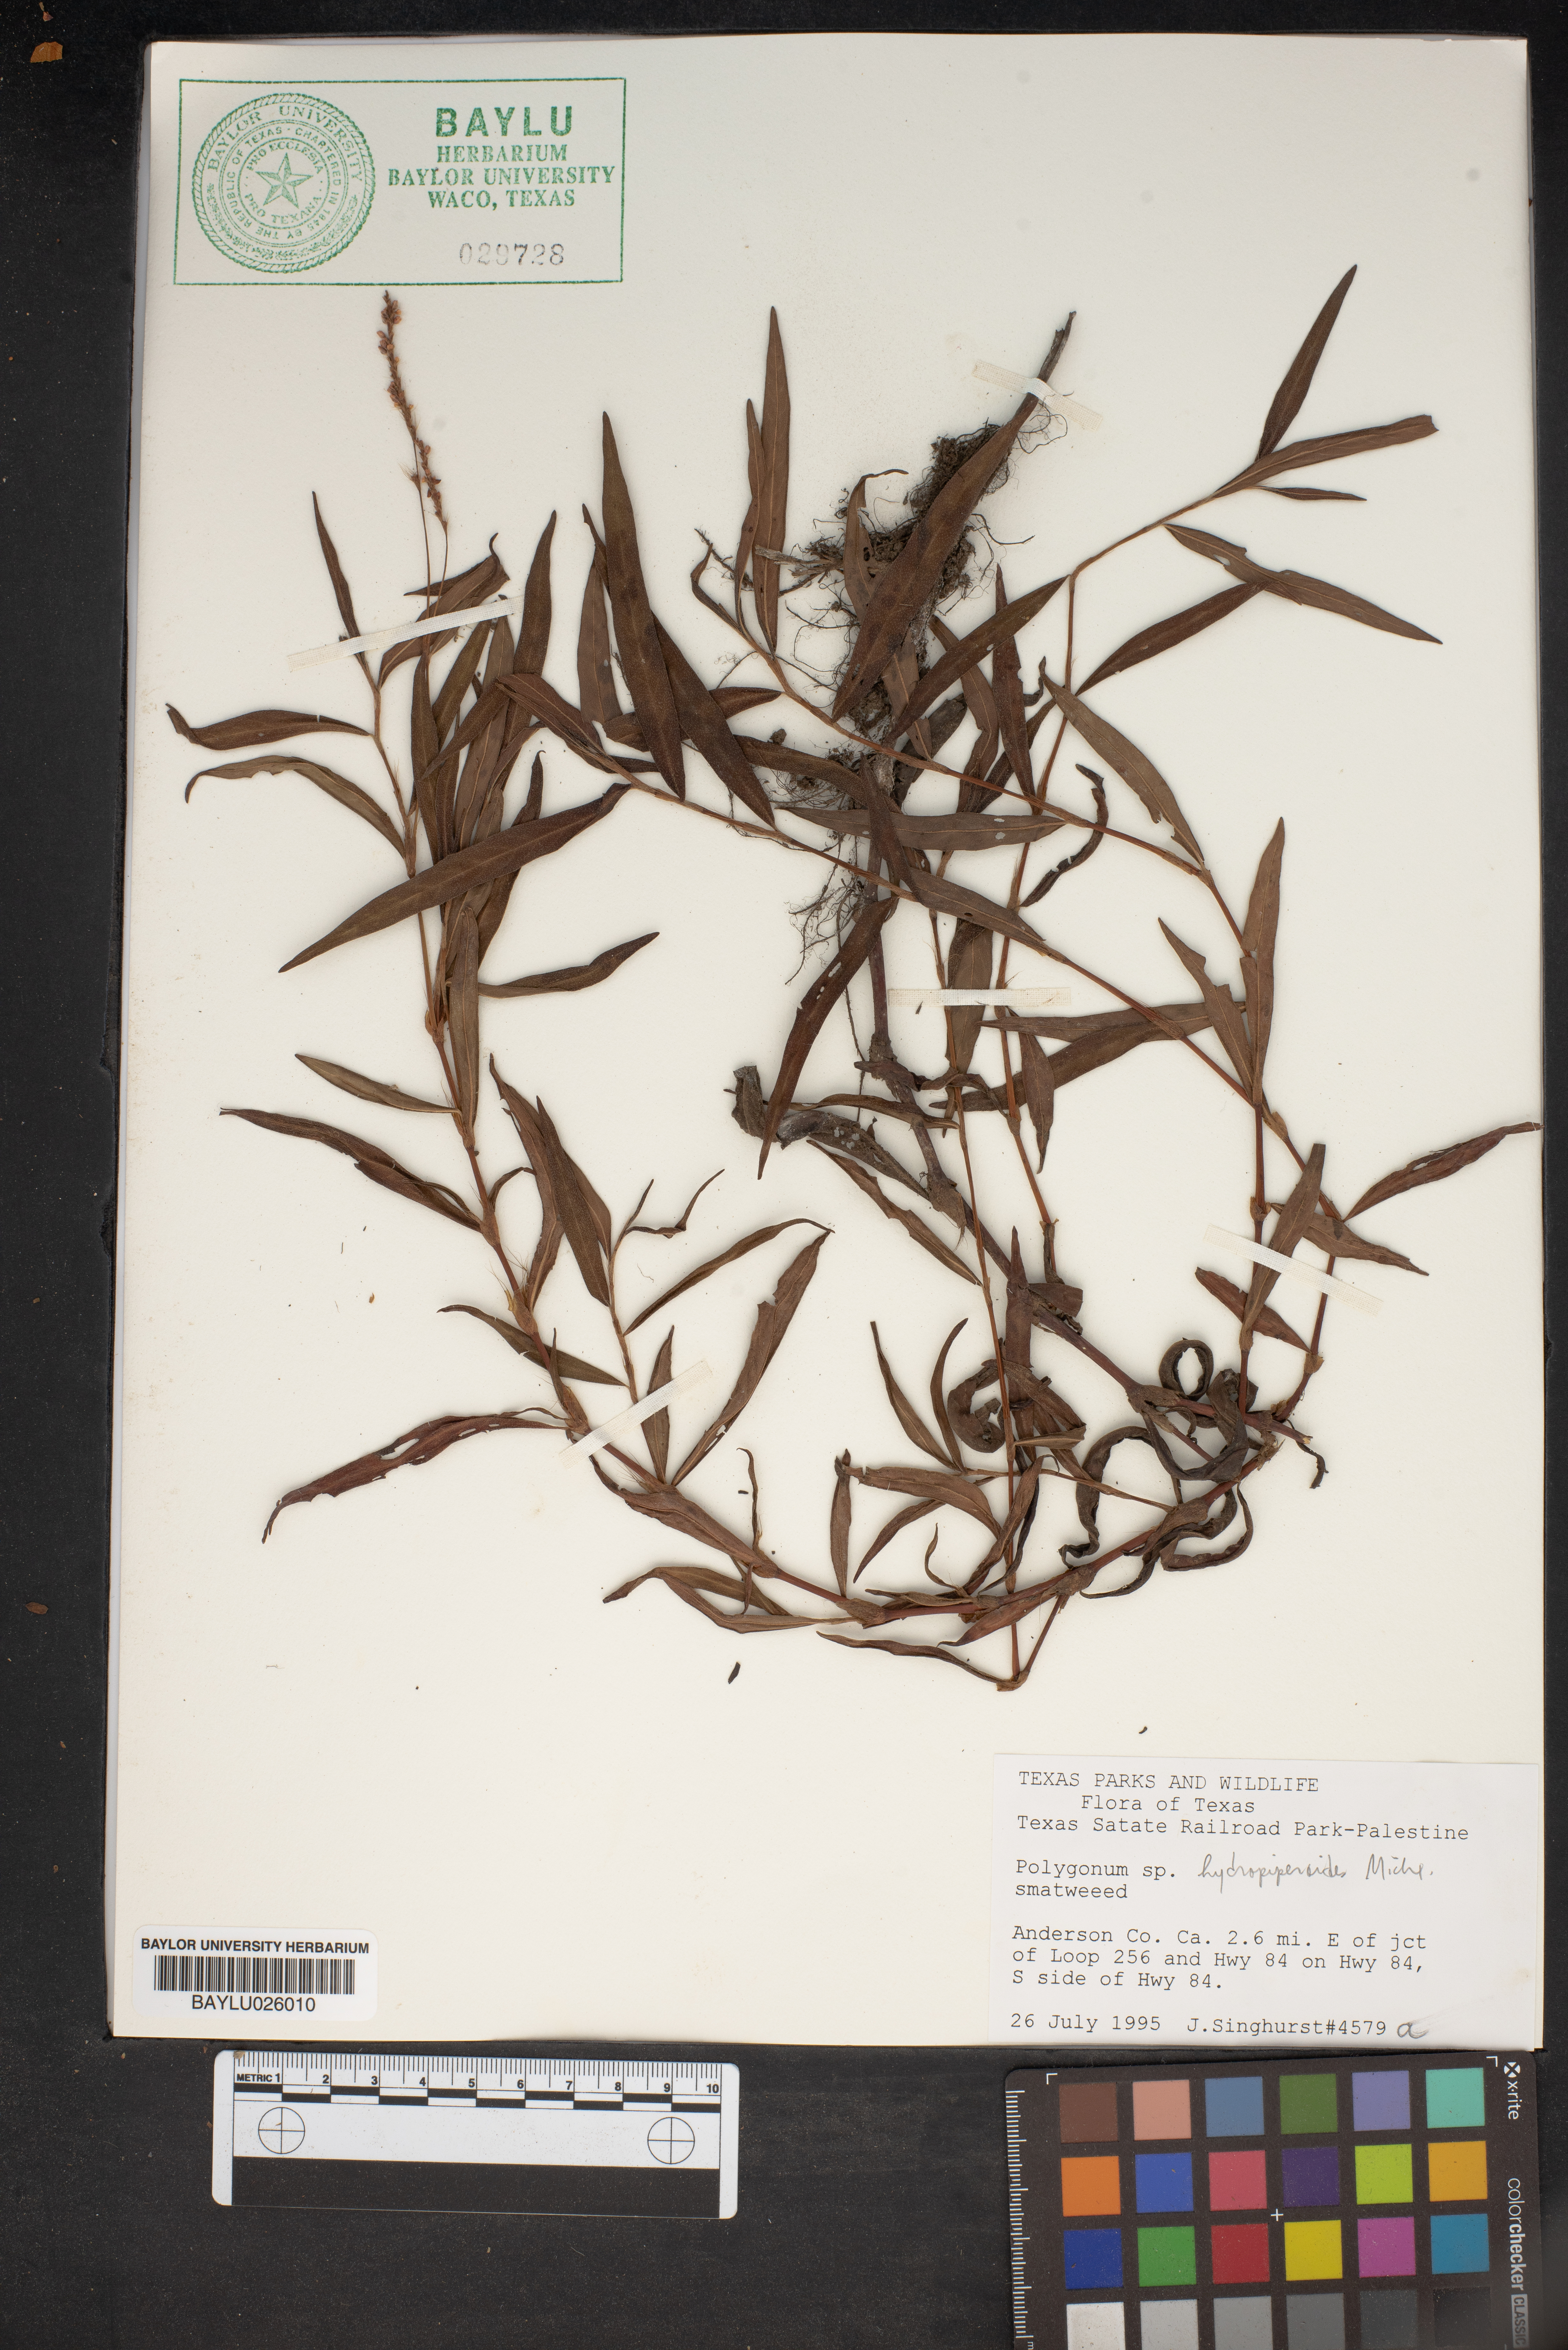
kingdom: Plantae
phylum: Tracheophyta
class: Magnoliopsida
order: Caryophyllales
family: Polygonaceae
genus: Persicaria
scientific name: Persicaria hydropiperoides
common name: Swamp smartweed
